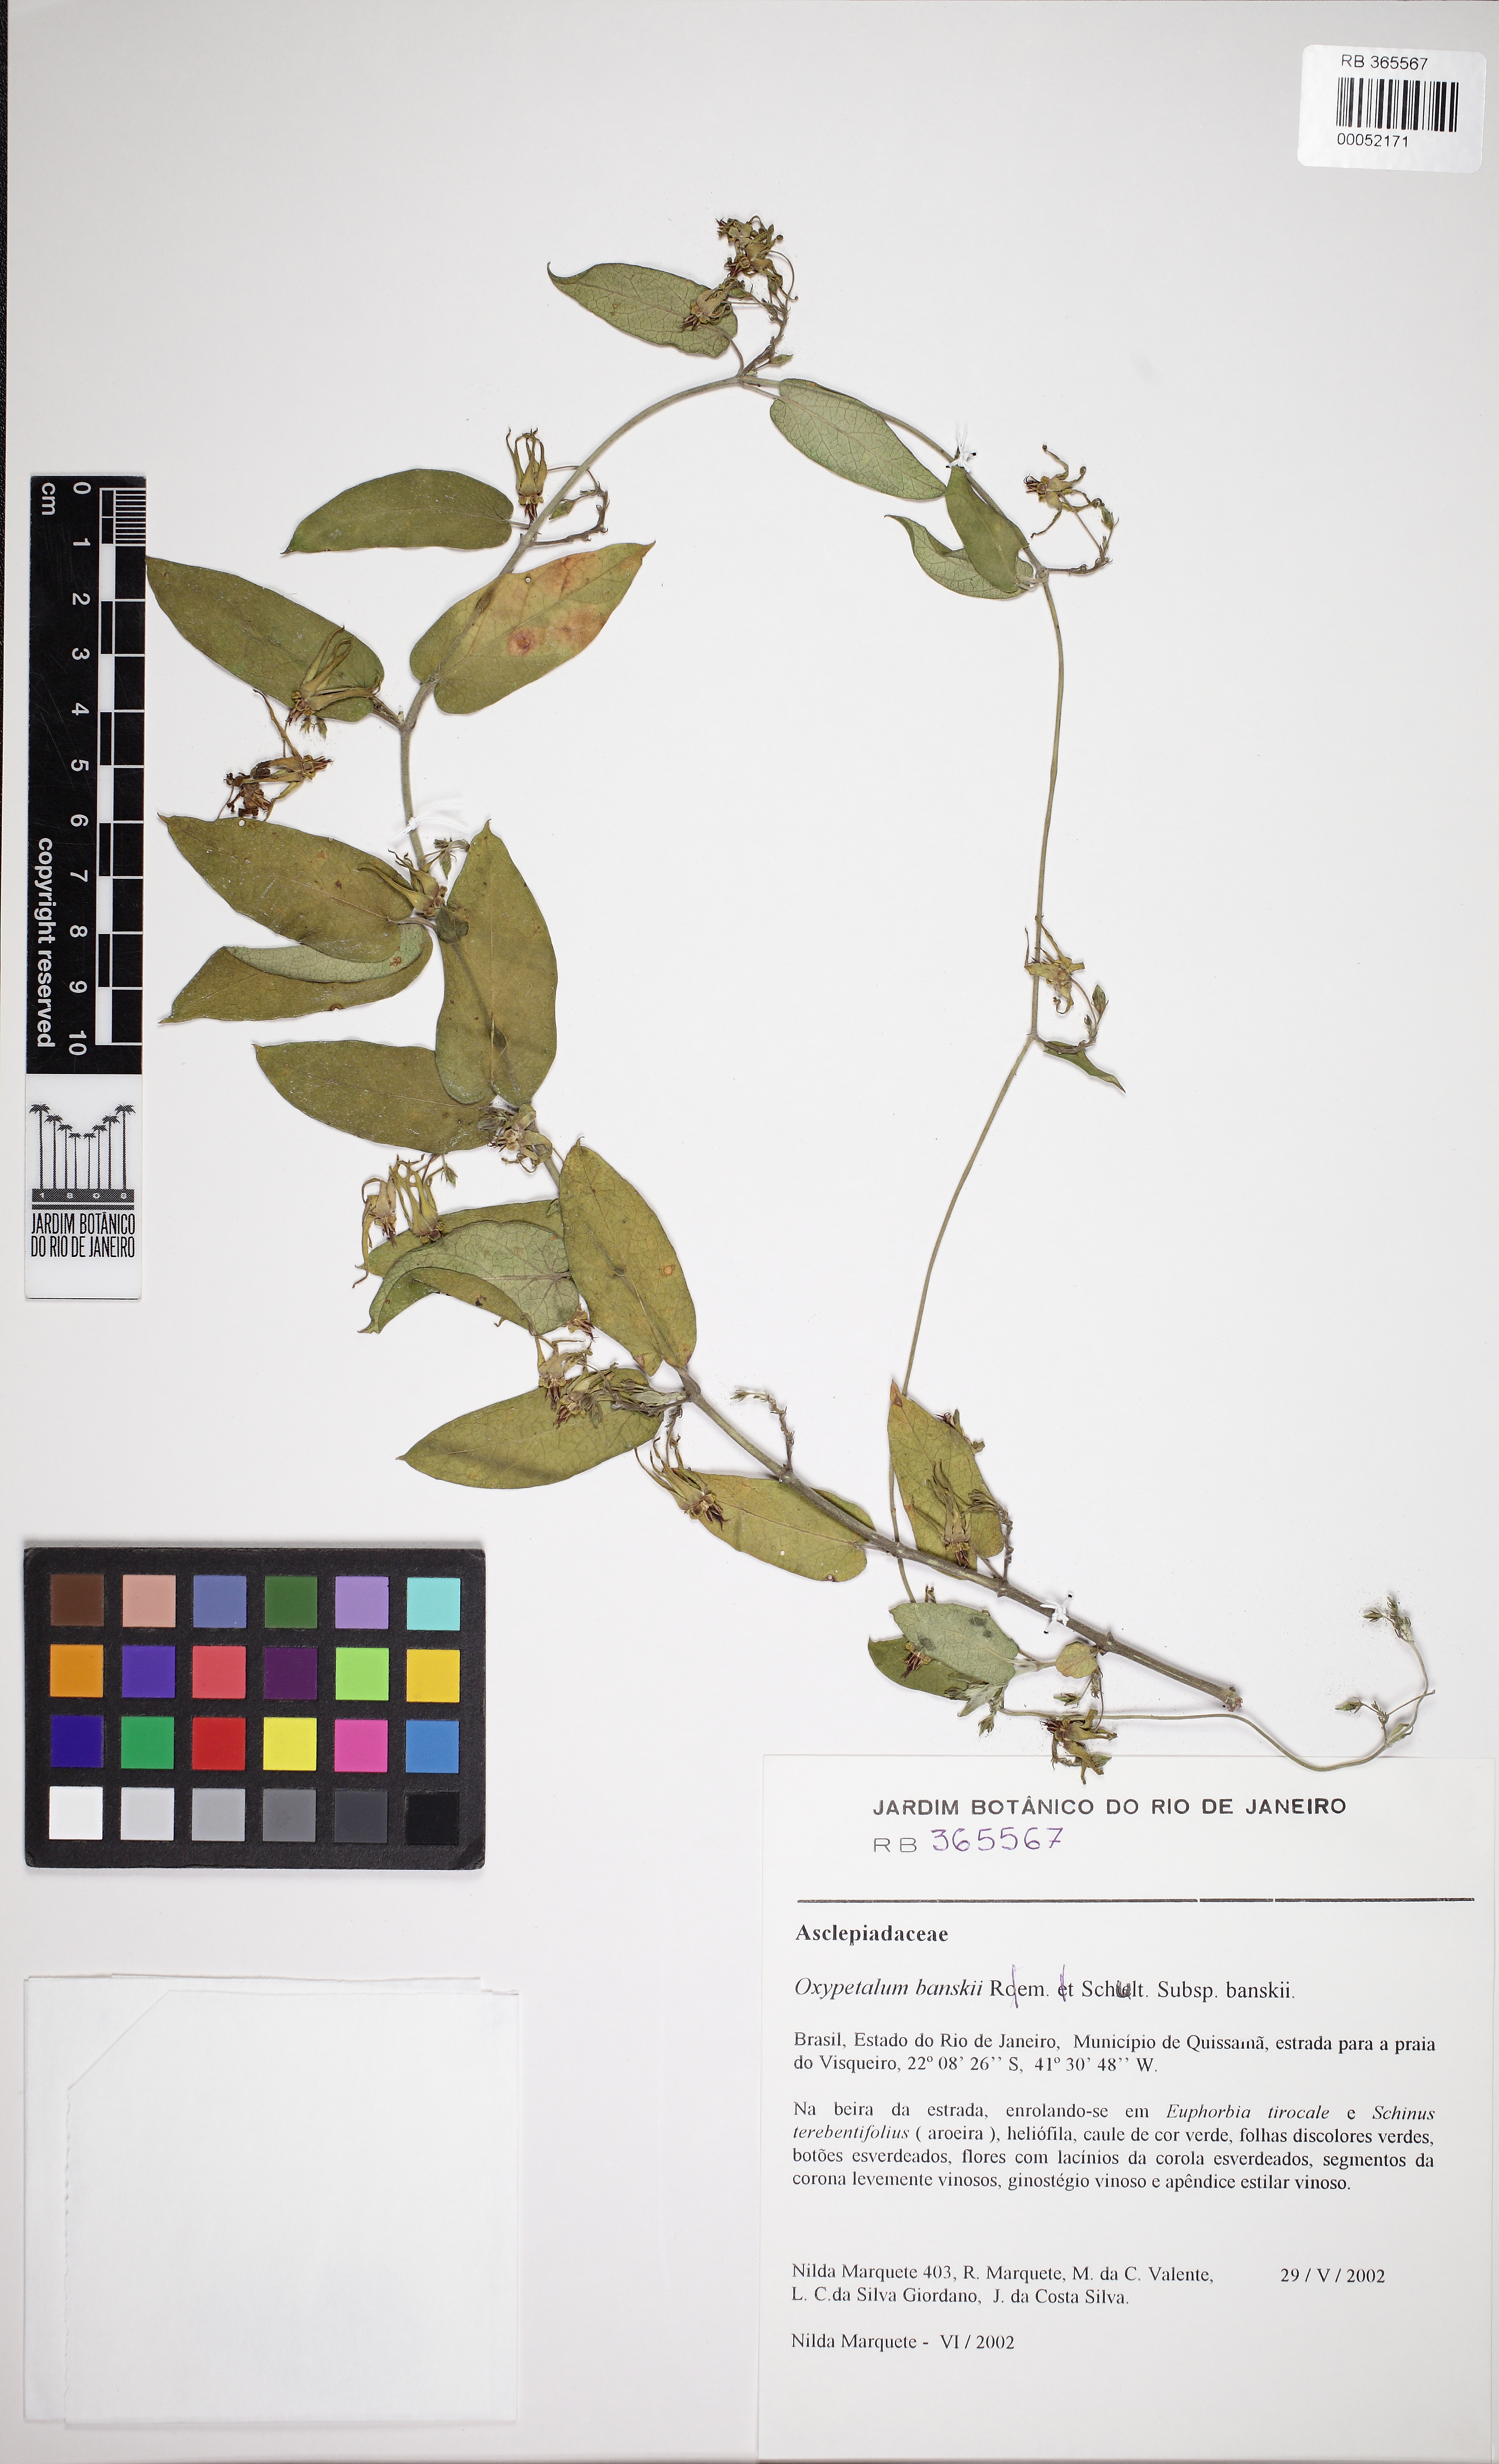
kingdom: Plantae
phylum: Tracheophyta
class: Magnoliopsida
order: Gentianales
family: Apocynaceae
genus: Oxypetalum
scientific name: Oxypetalum banksii
